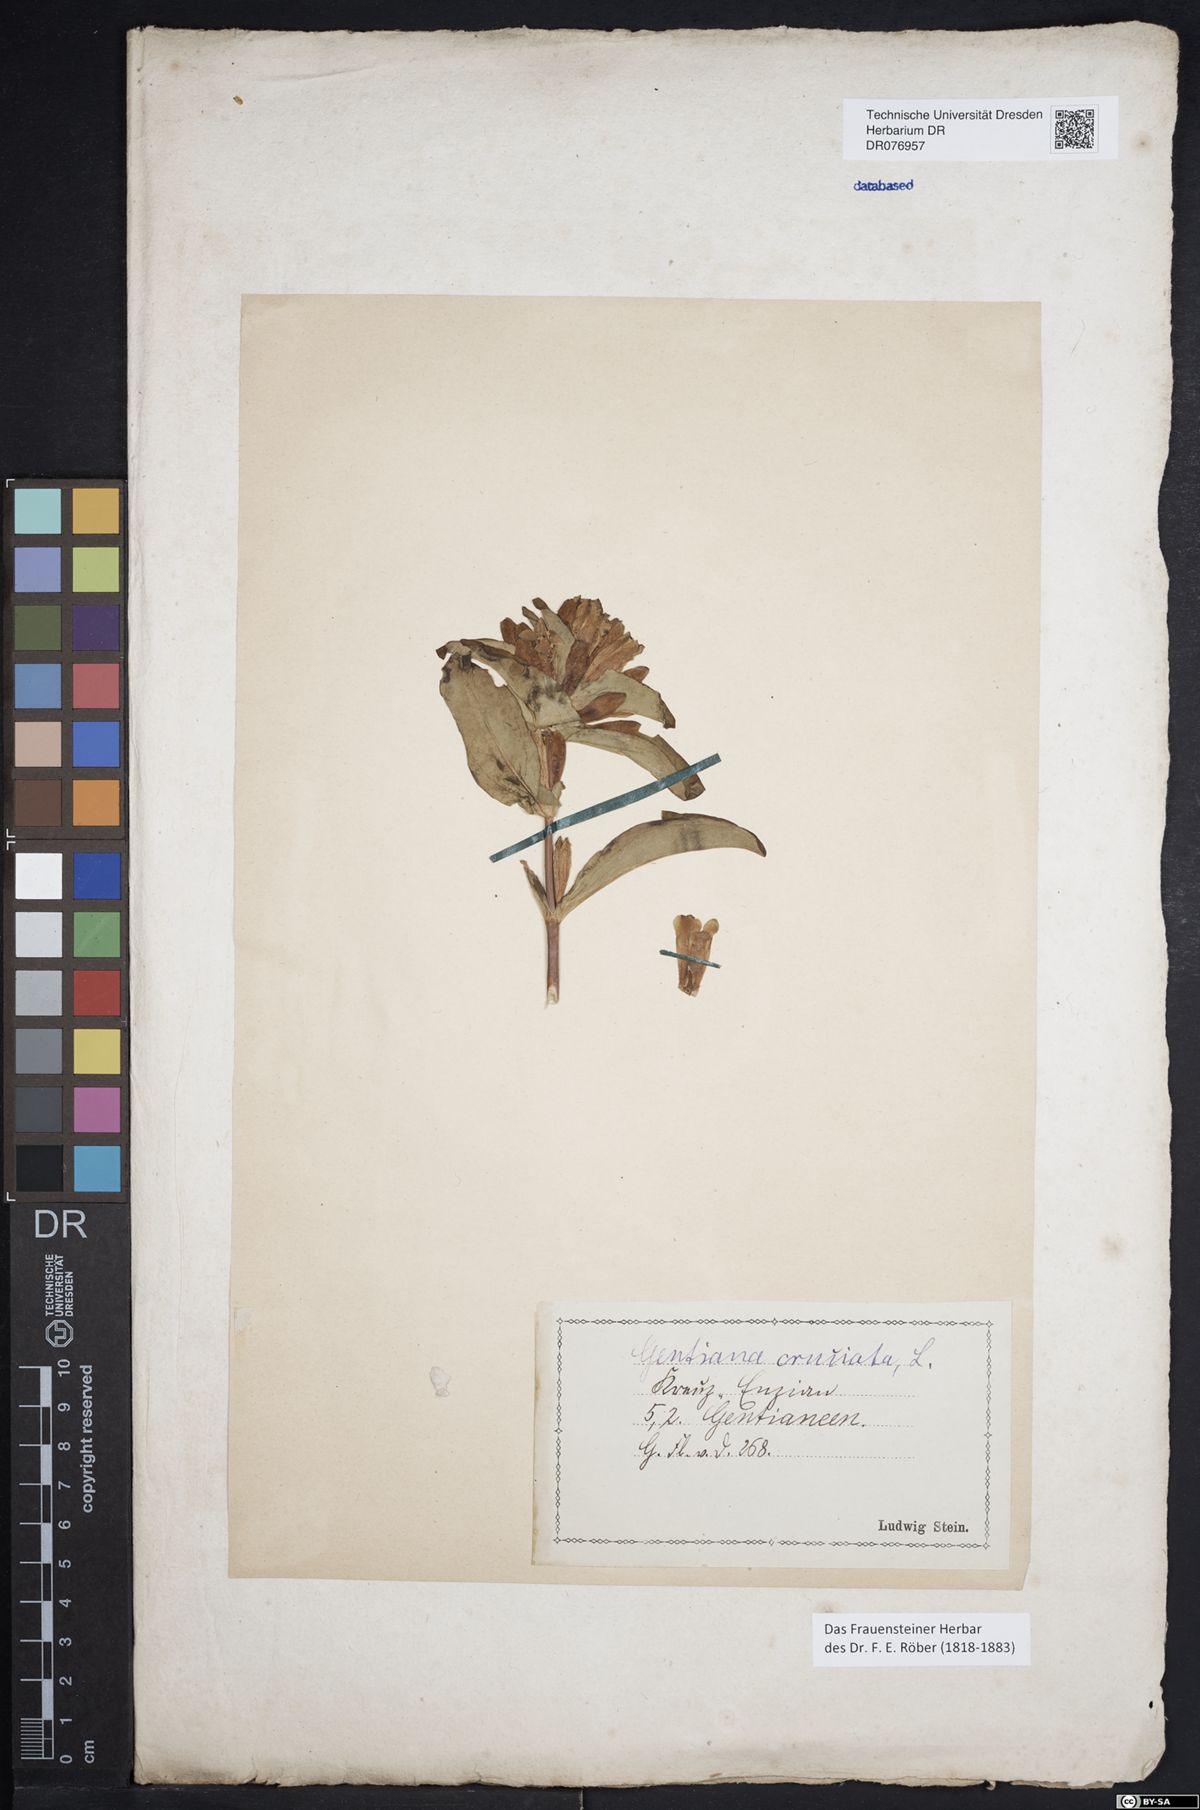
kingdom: Plantae
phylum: Tracheophyta
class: Magnoliopsida
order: Gentianales
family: Gentianaceae
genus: Gentiana
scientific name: Gentiana cruciata
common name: Cross gentian
